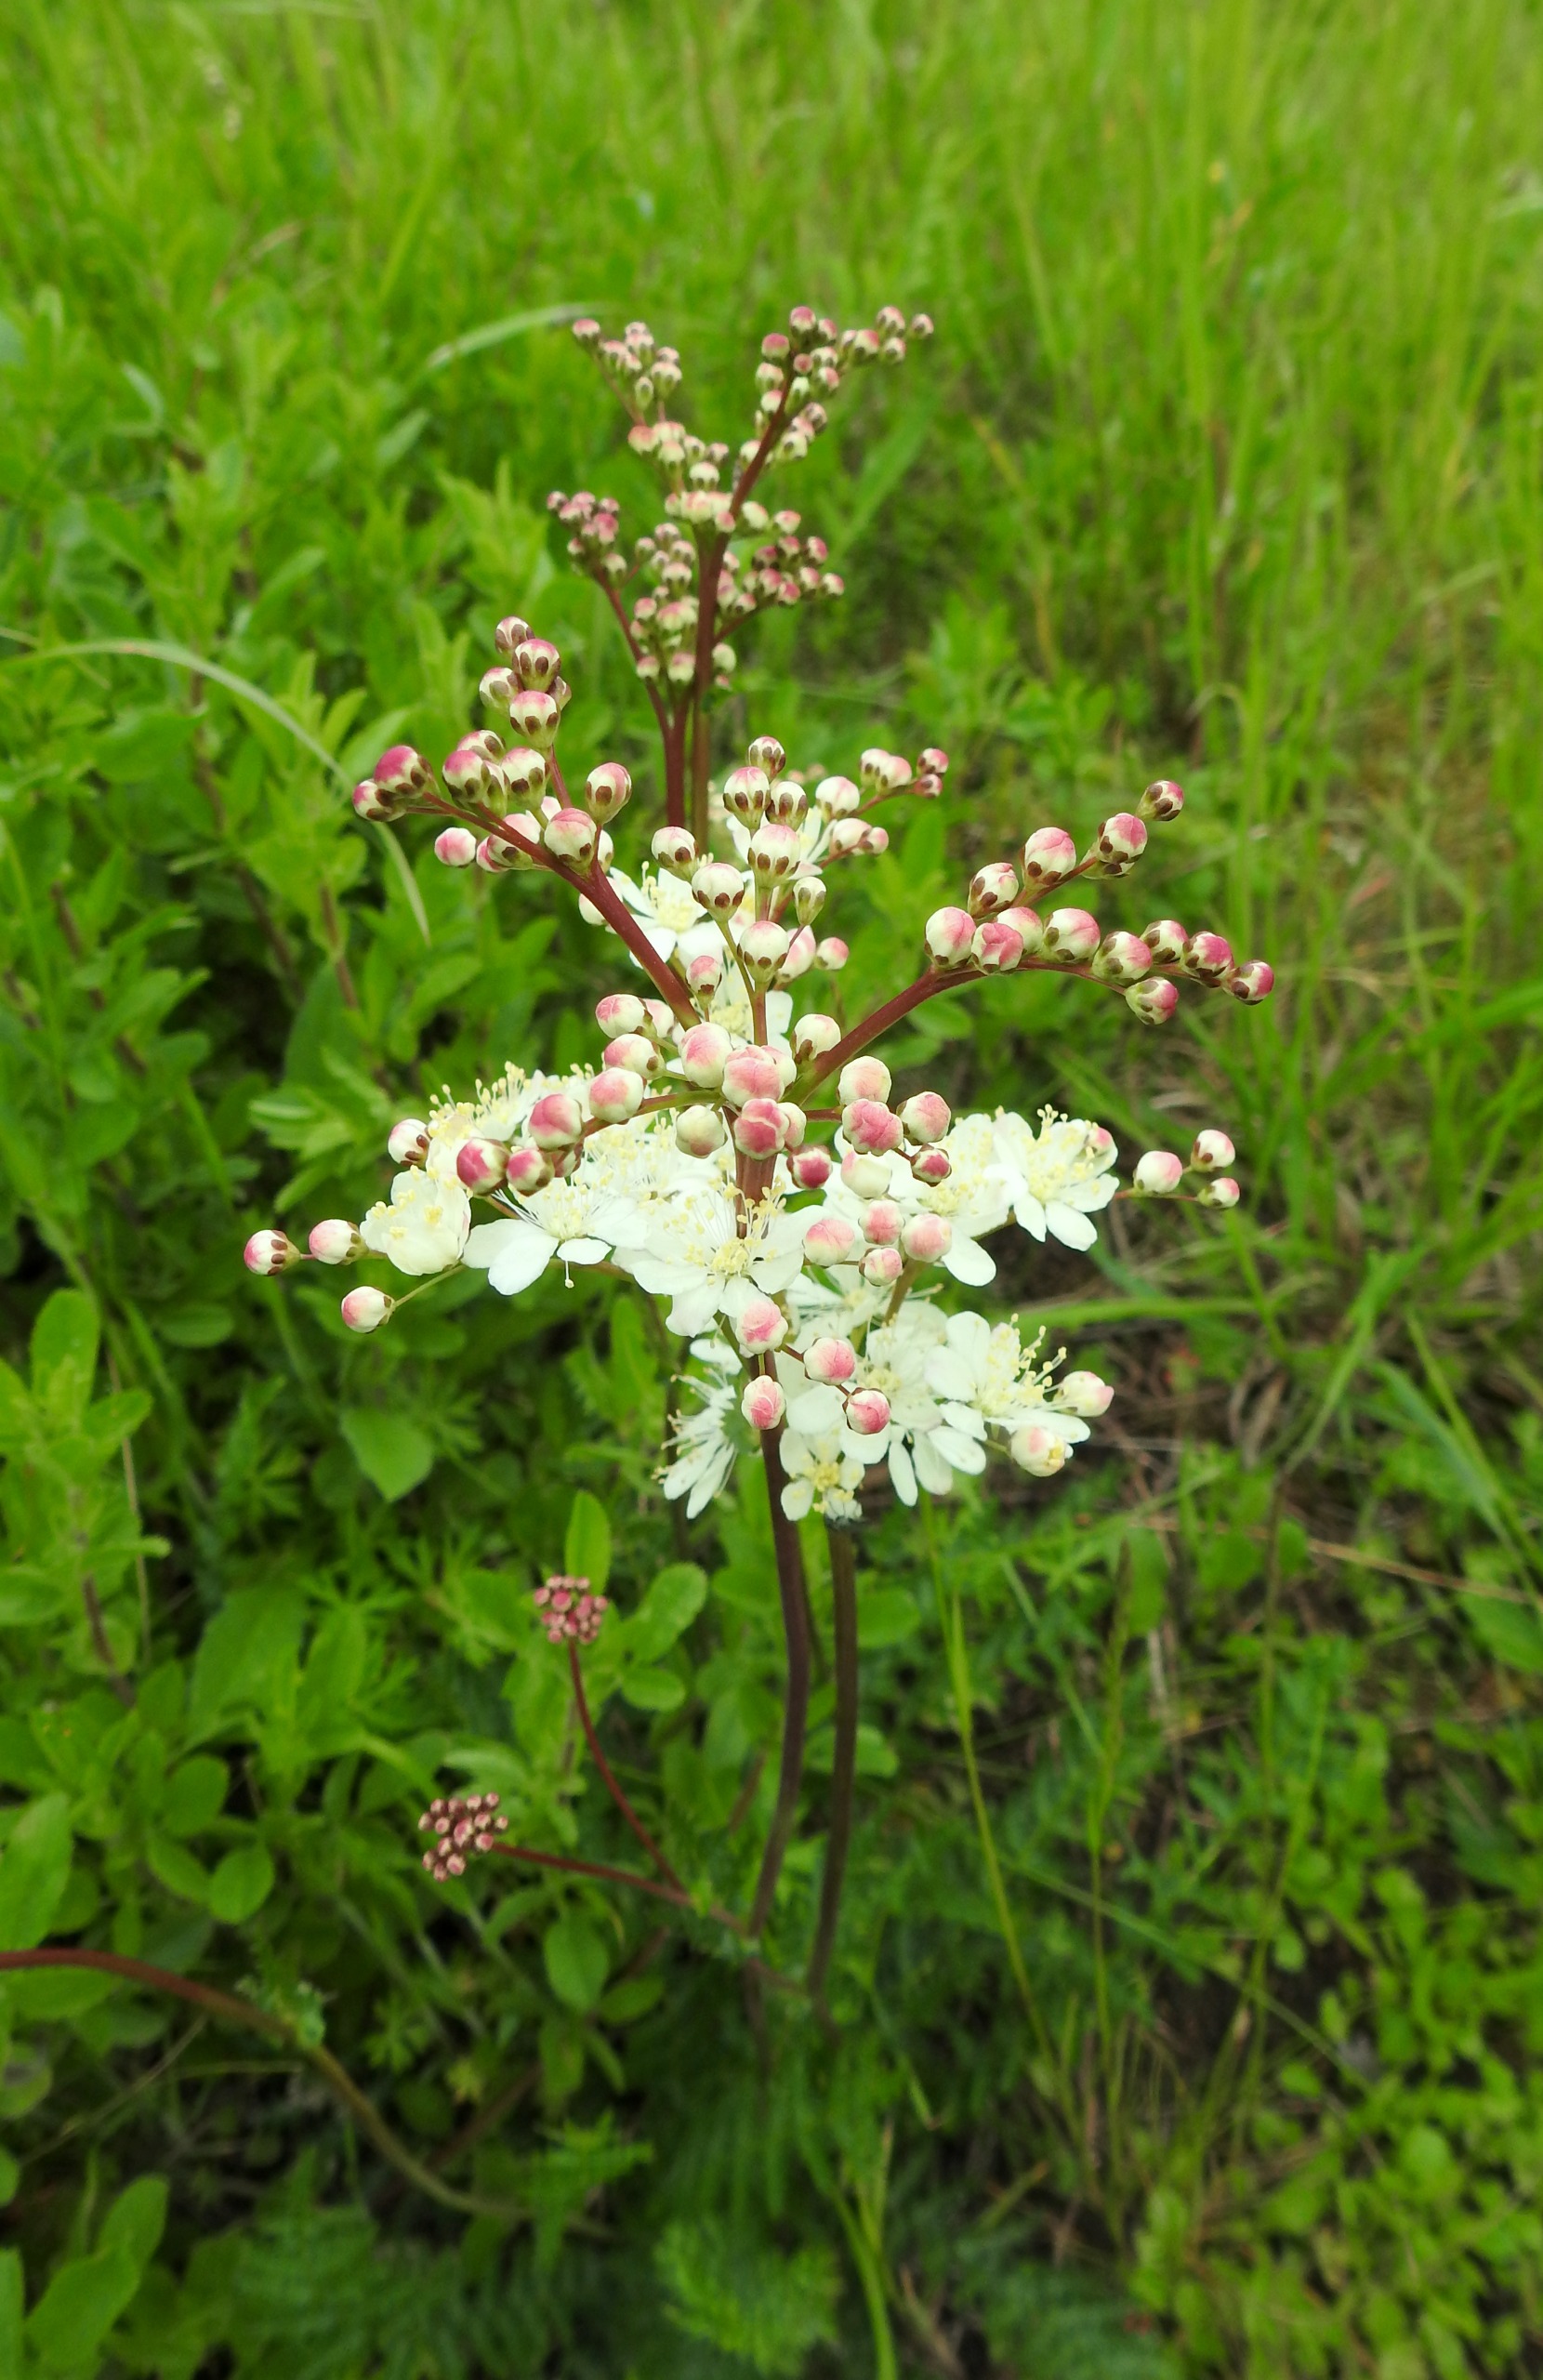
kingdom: Plantae
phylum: Tracheophyta
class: Magnoliopsida
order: Rosales
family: Rosaceae
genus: Filipendula
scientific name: Filipendula vulgaris
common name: Knoldet mjødurt
